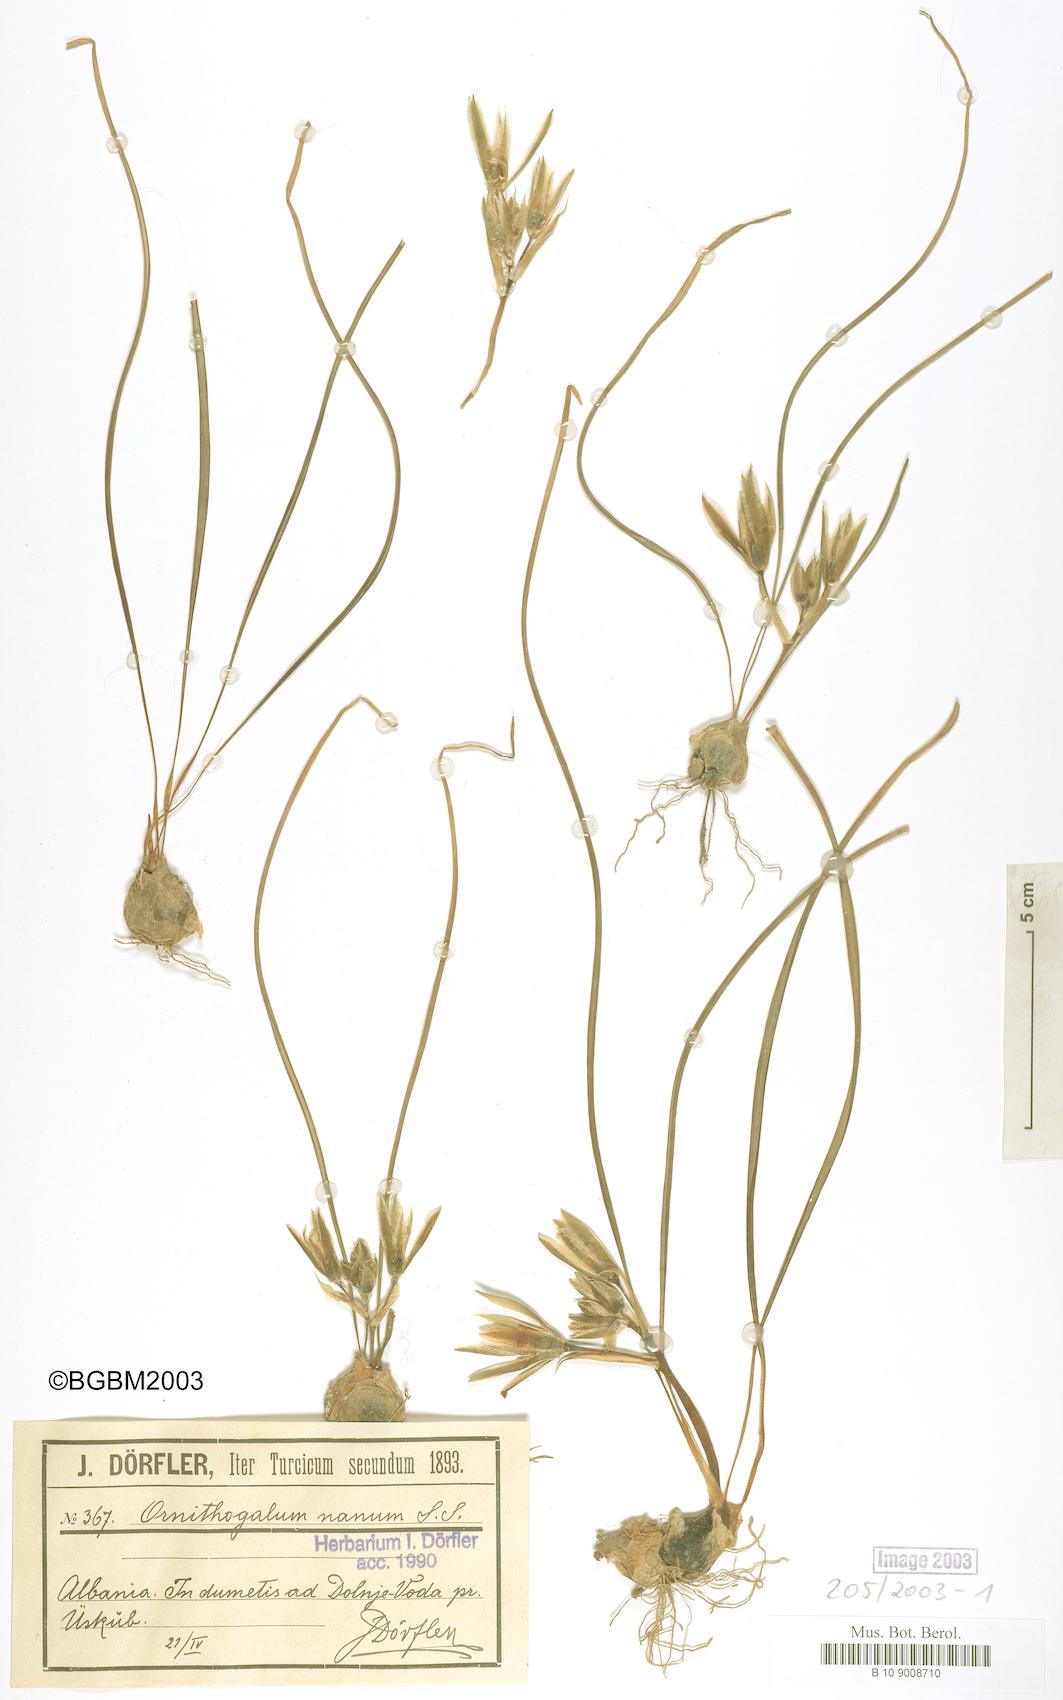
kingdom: Plantae
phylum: Tracheophyta
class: Liliopsida
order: Asparagales
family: Asparagaceae
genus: Ornithogalum
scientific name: Ornithogalum sigmoideum
